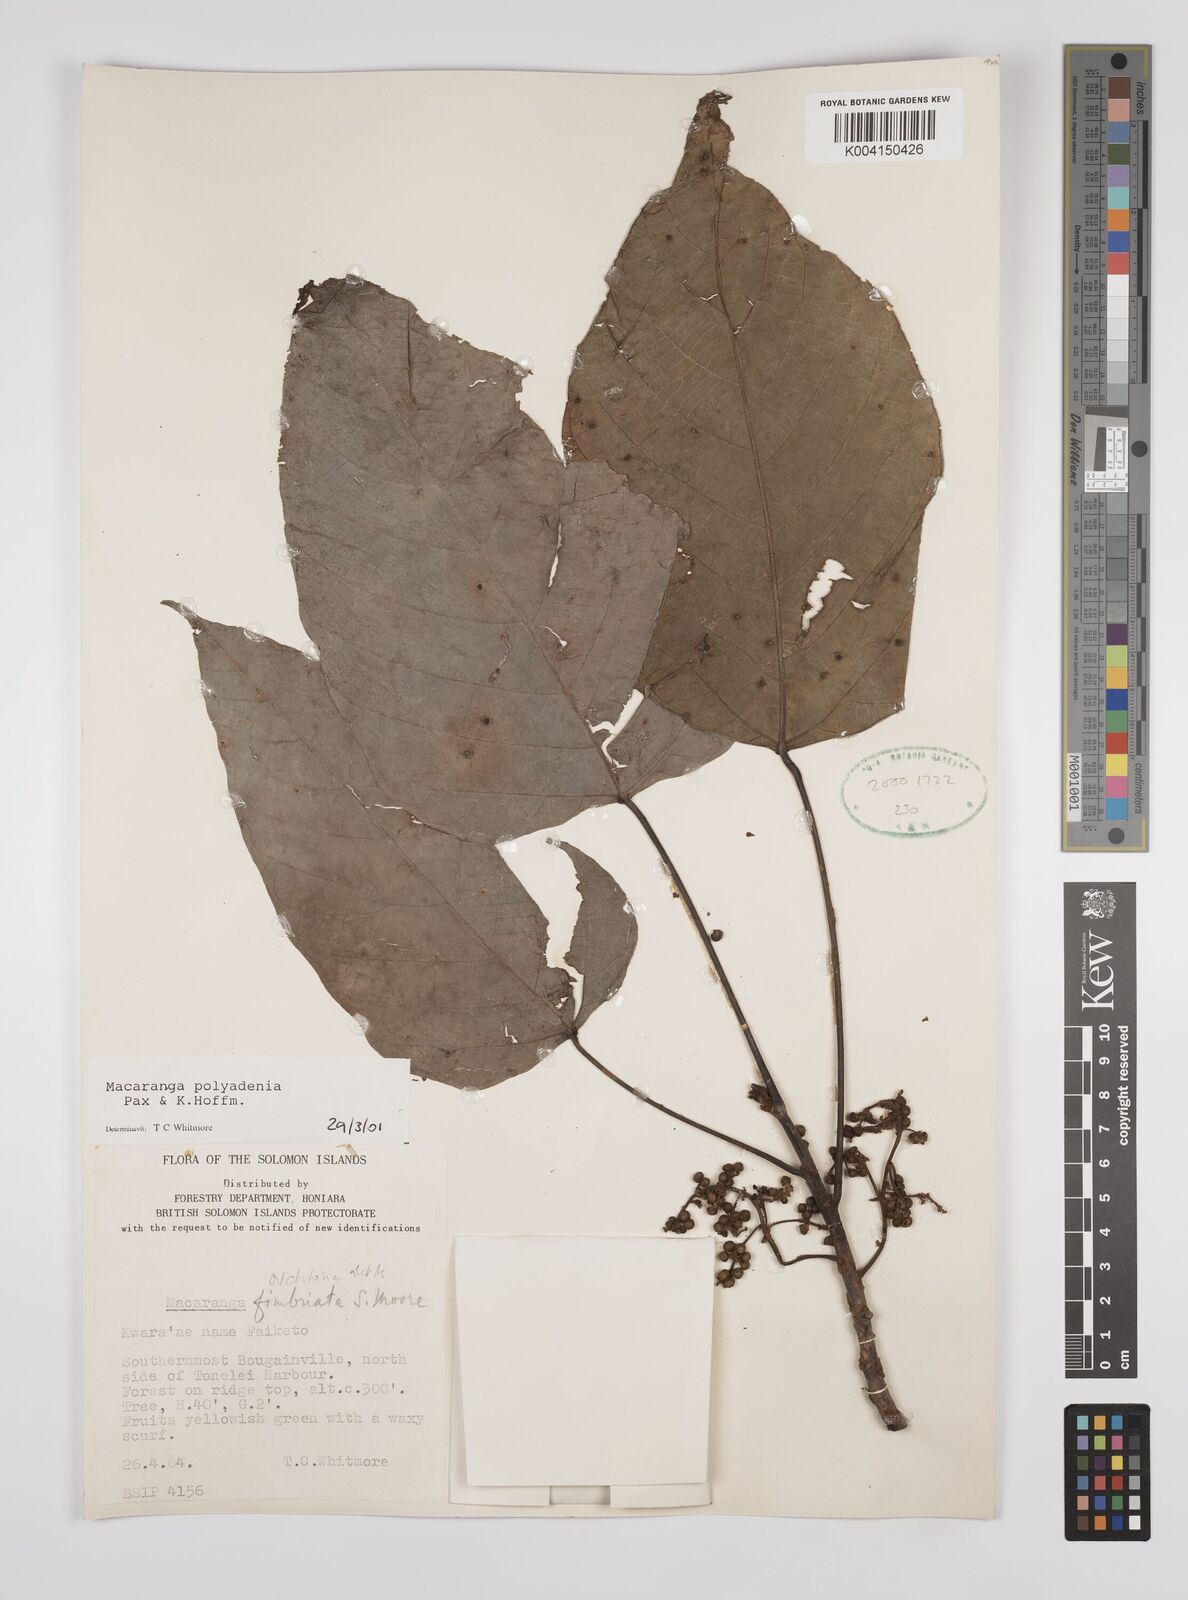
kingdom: Plantae
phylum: Tracheophyta
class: Magnoliopsida
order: Malpighiales
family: Euphorbiaceae
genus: Macaranga
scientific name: Macaranga polyadenia
